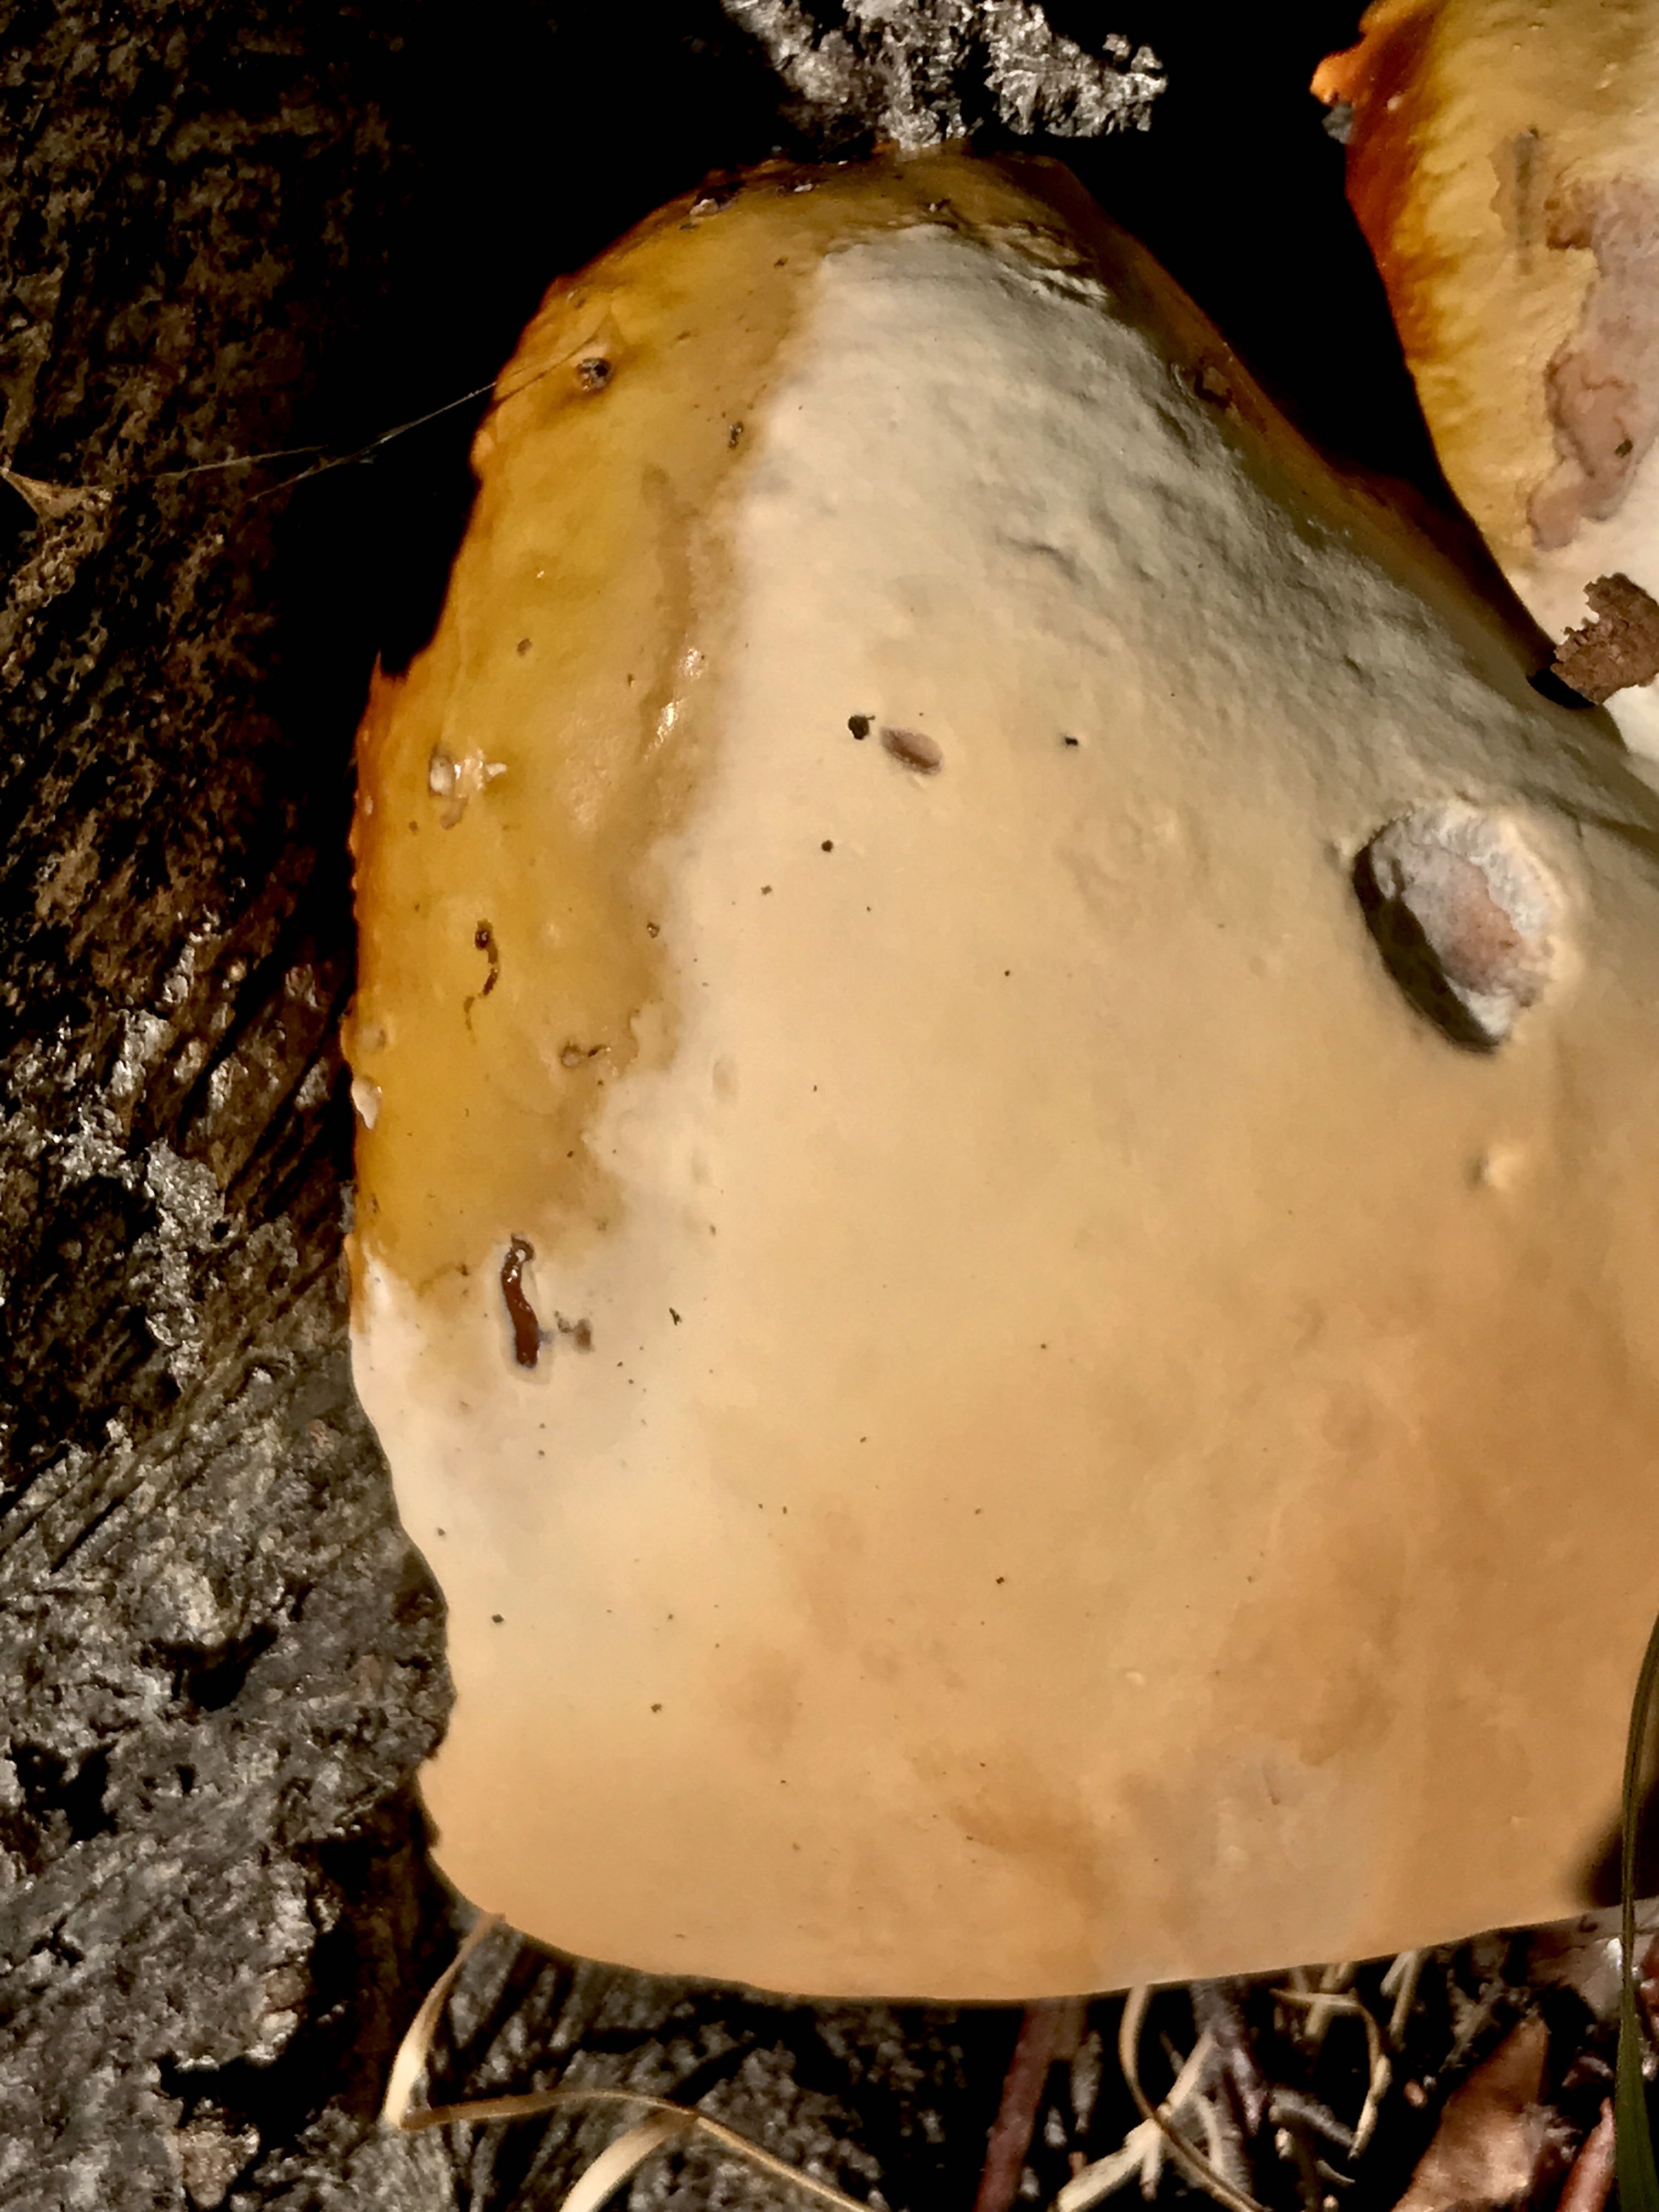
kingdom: Fungi
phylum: Basidiomycota
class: Agaricomycetes
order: Polyporales
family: Polyporaceae
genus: Ganoderma
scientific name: Ganoderma resinaceum
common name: gyldenbrun lakporesvamp
